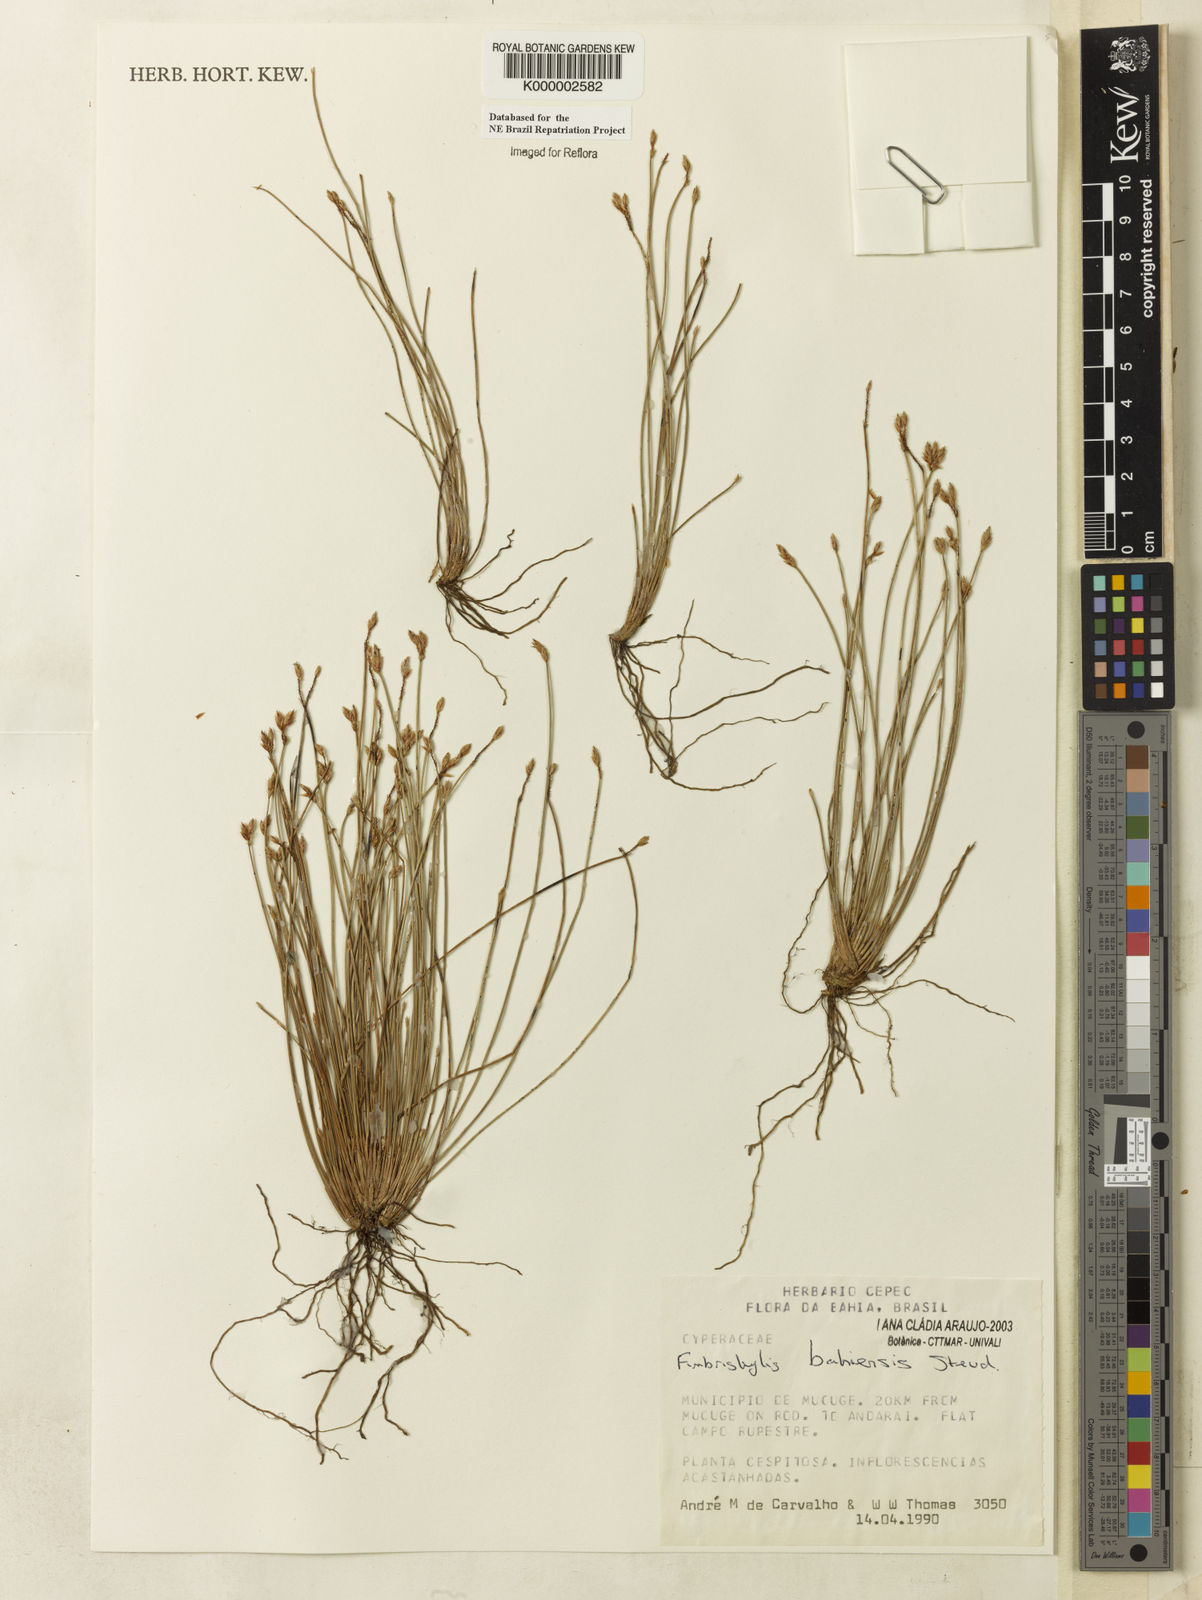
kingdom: Plantae
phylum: Tracheophyta
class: Liliopsida
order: Poales
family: Cyperaceae
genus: Fimbristylis
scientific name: Fimbristylis bahiensis
